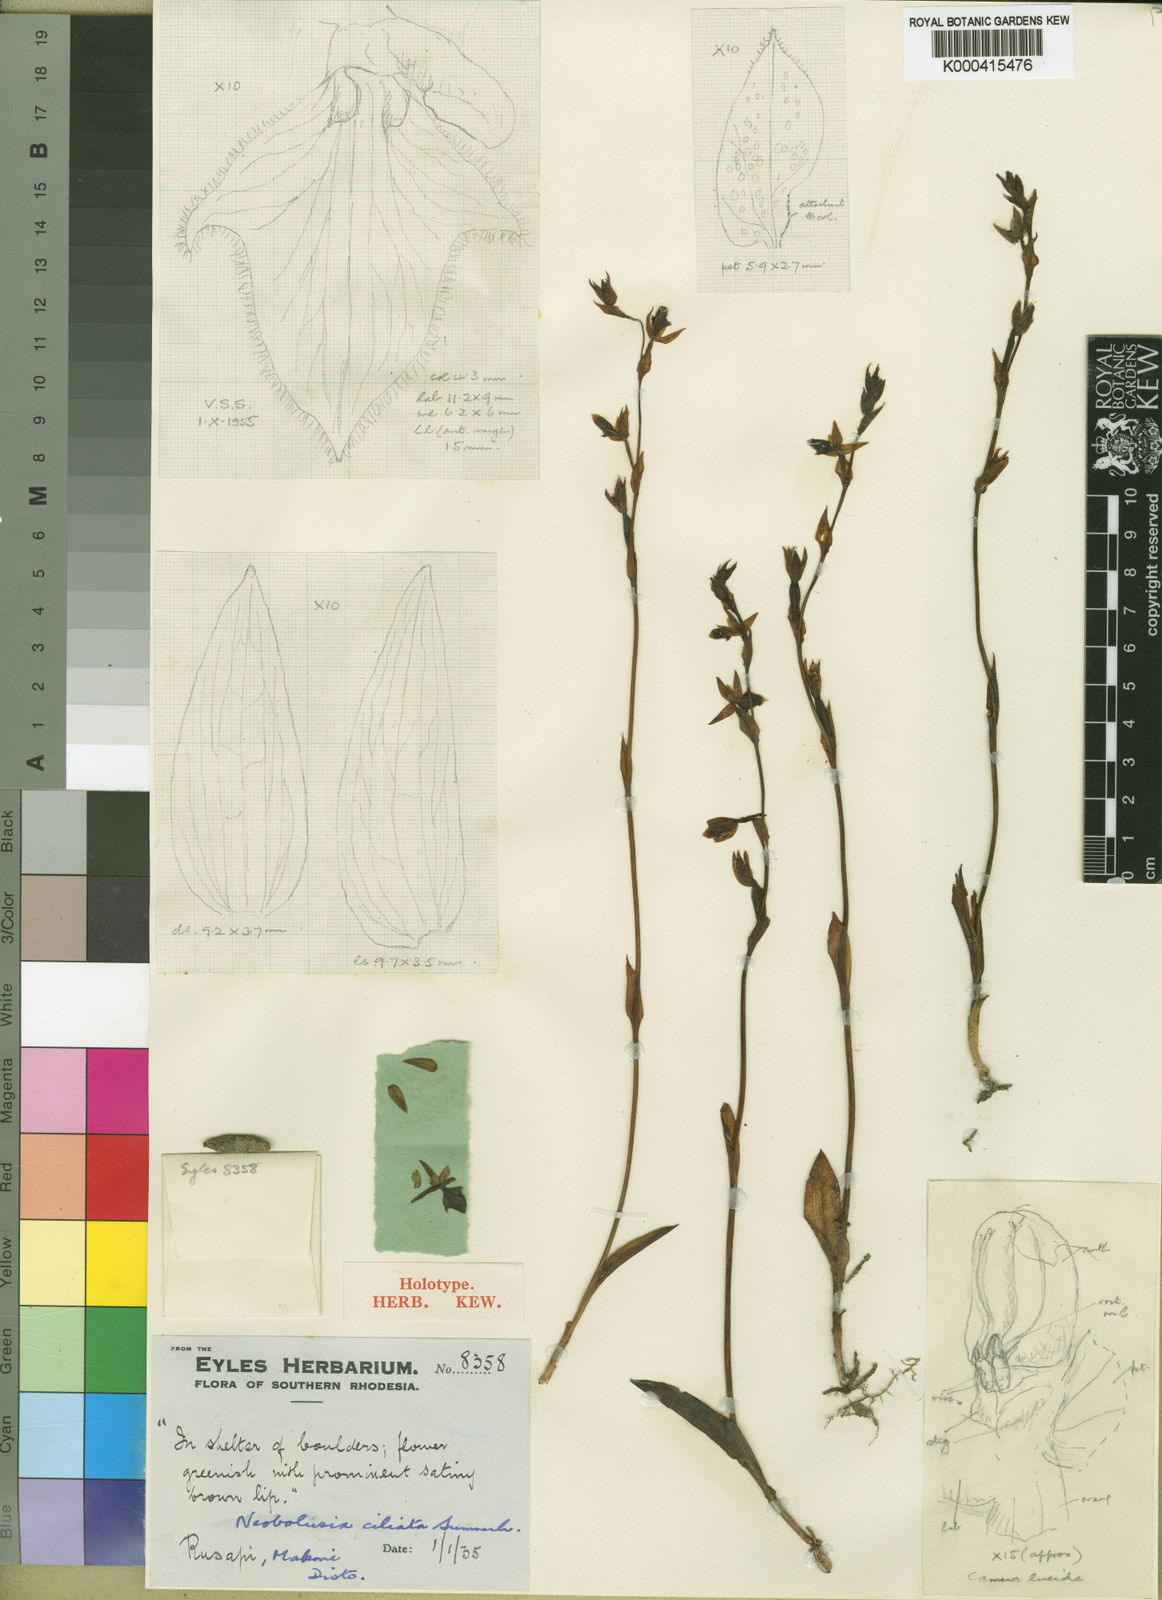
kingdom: Plantae
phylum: Tracheophyta
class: Liliopsida
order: Asparagales
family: Orchidaceae
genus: Neobolusia
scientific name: Neobolusia ciliata
